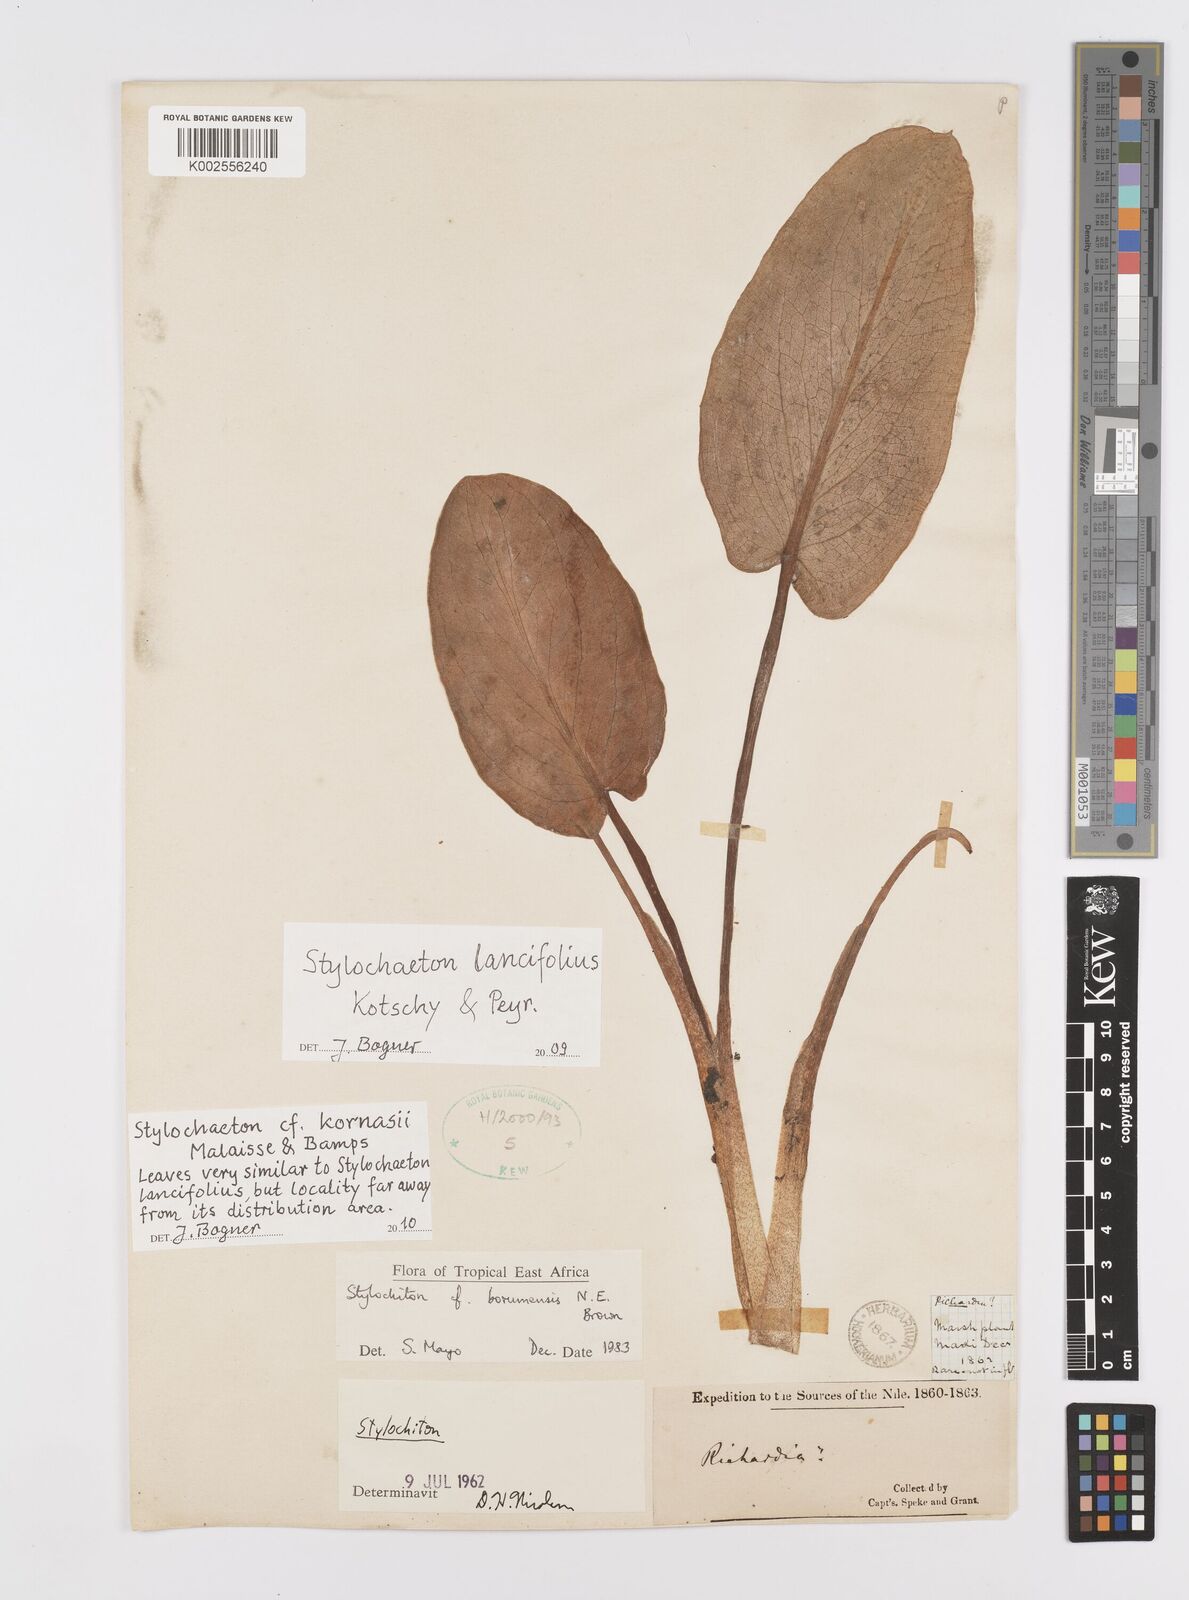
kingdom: Plantae
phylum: Tracheophyta
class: Liliopsida
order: Alismatales
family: Araceae
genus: Stylochaeton
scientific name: Stylochaeton kornasii
